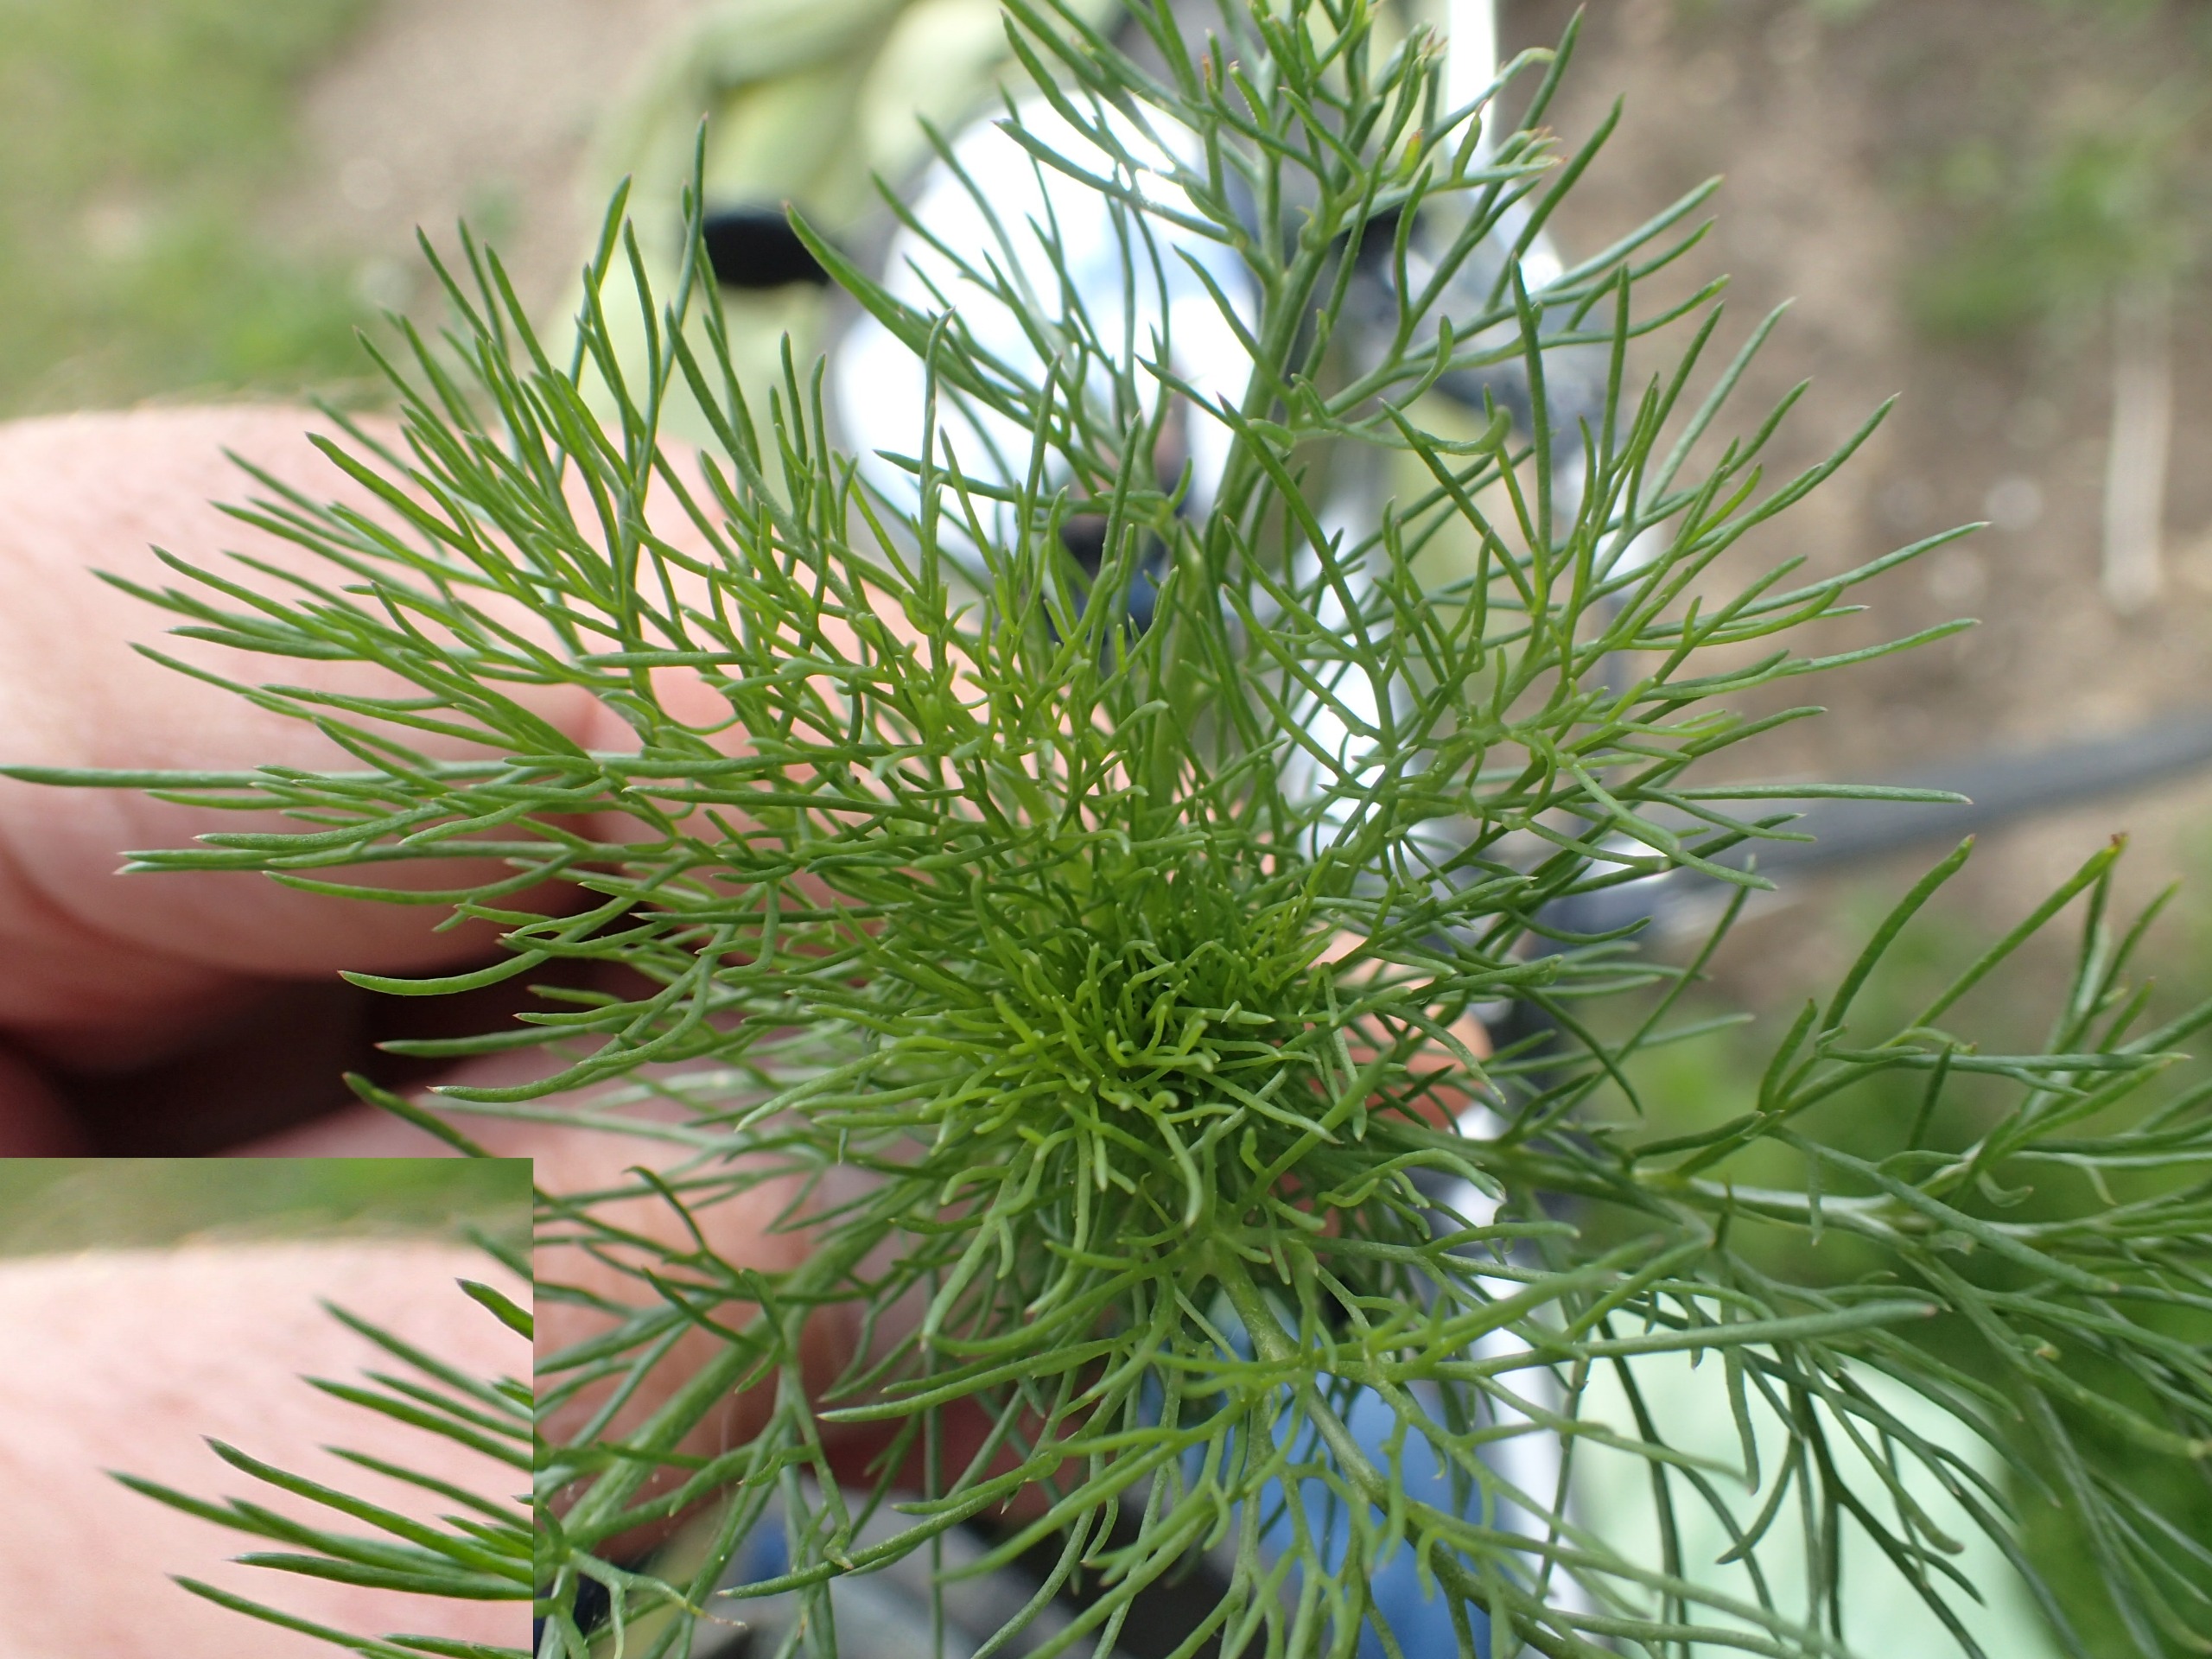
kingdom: Plantae
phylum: Tracheophyta
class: Magnoliopsida
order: Asterales
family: Asteraceae
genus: Tripleurospermum
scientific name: Tripleurospermum inodorum
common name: Lugtløs kamille
